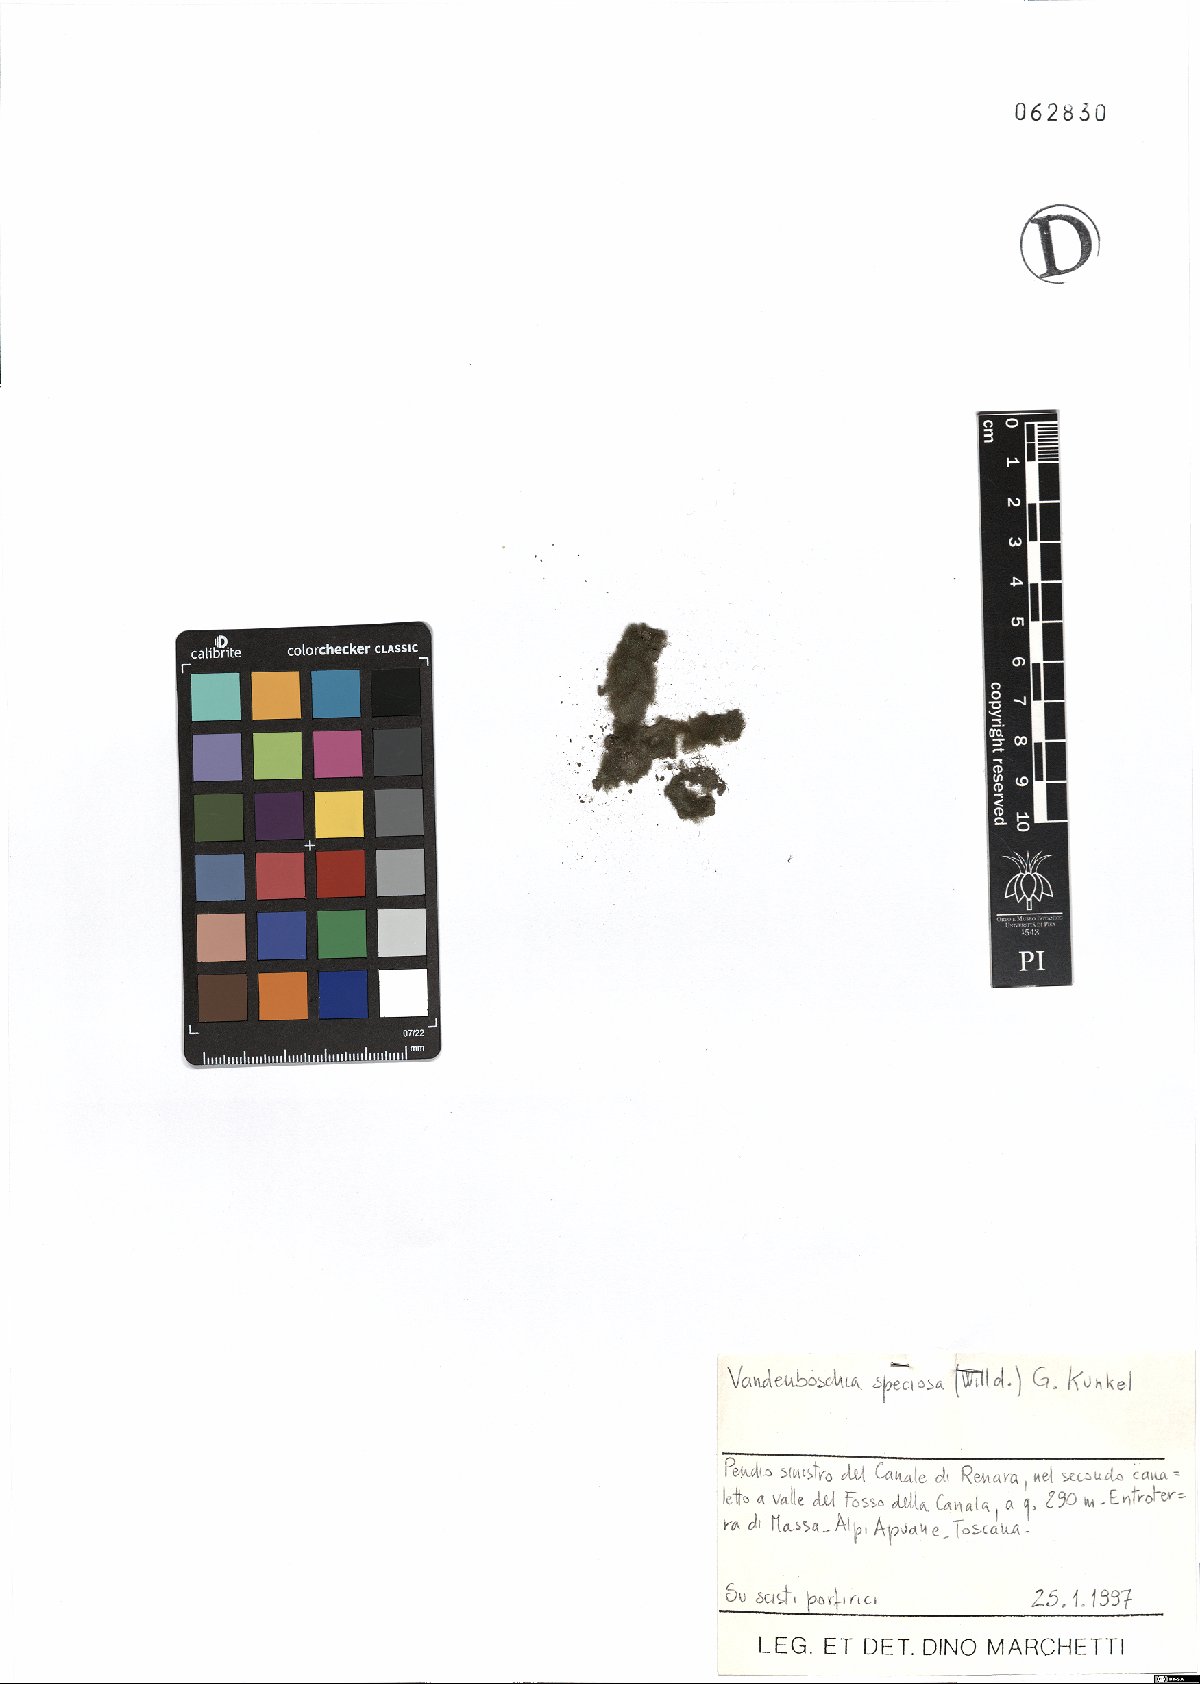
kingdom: Plantae
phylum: Tracheophyta
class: Polypodiopsida
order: Hymenophyllales
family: Hymenophyllaceae
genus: Vandenboschia
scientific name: Vandenboschia speciosa
